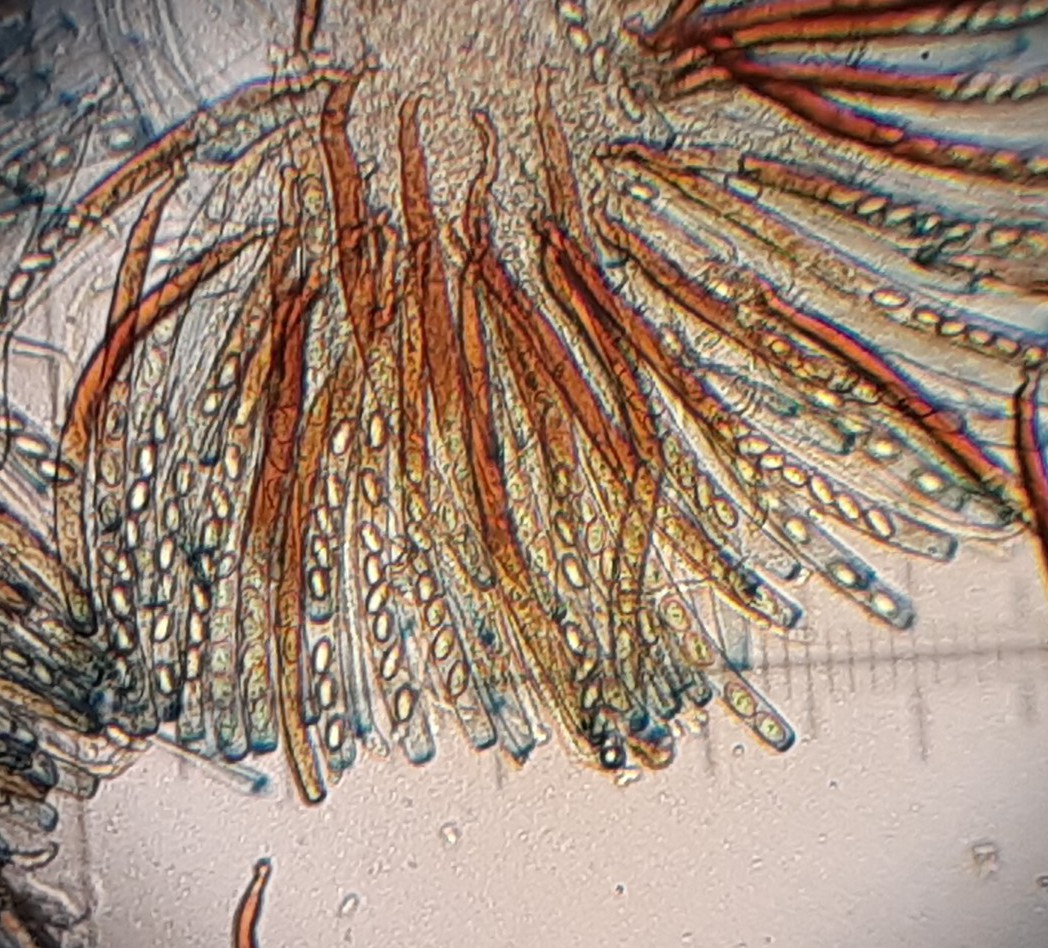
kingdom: Fungi
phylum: Ascomycota
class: Pezizomycetes
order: Pezizales
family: Pezizaceae
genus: Peziza
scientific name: Peziza fimeti
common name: møg-bægersvamp
